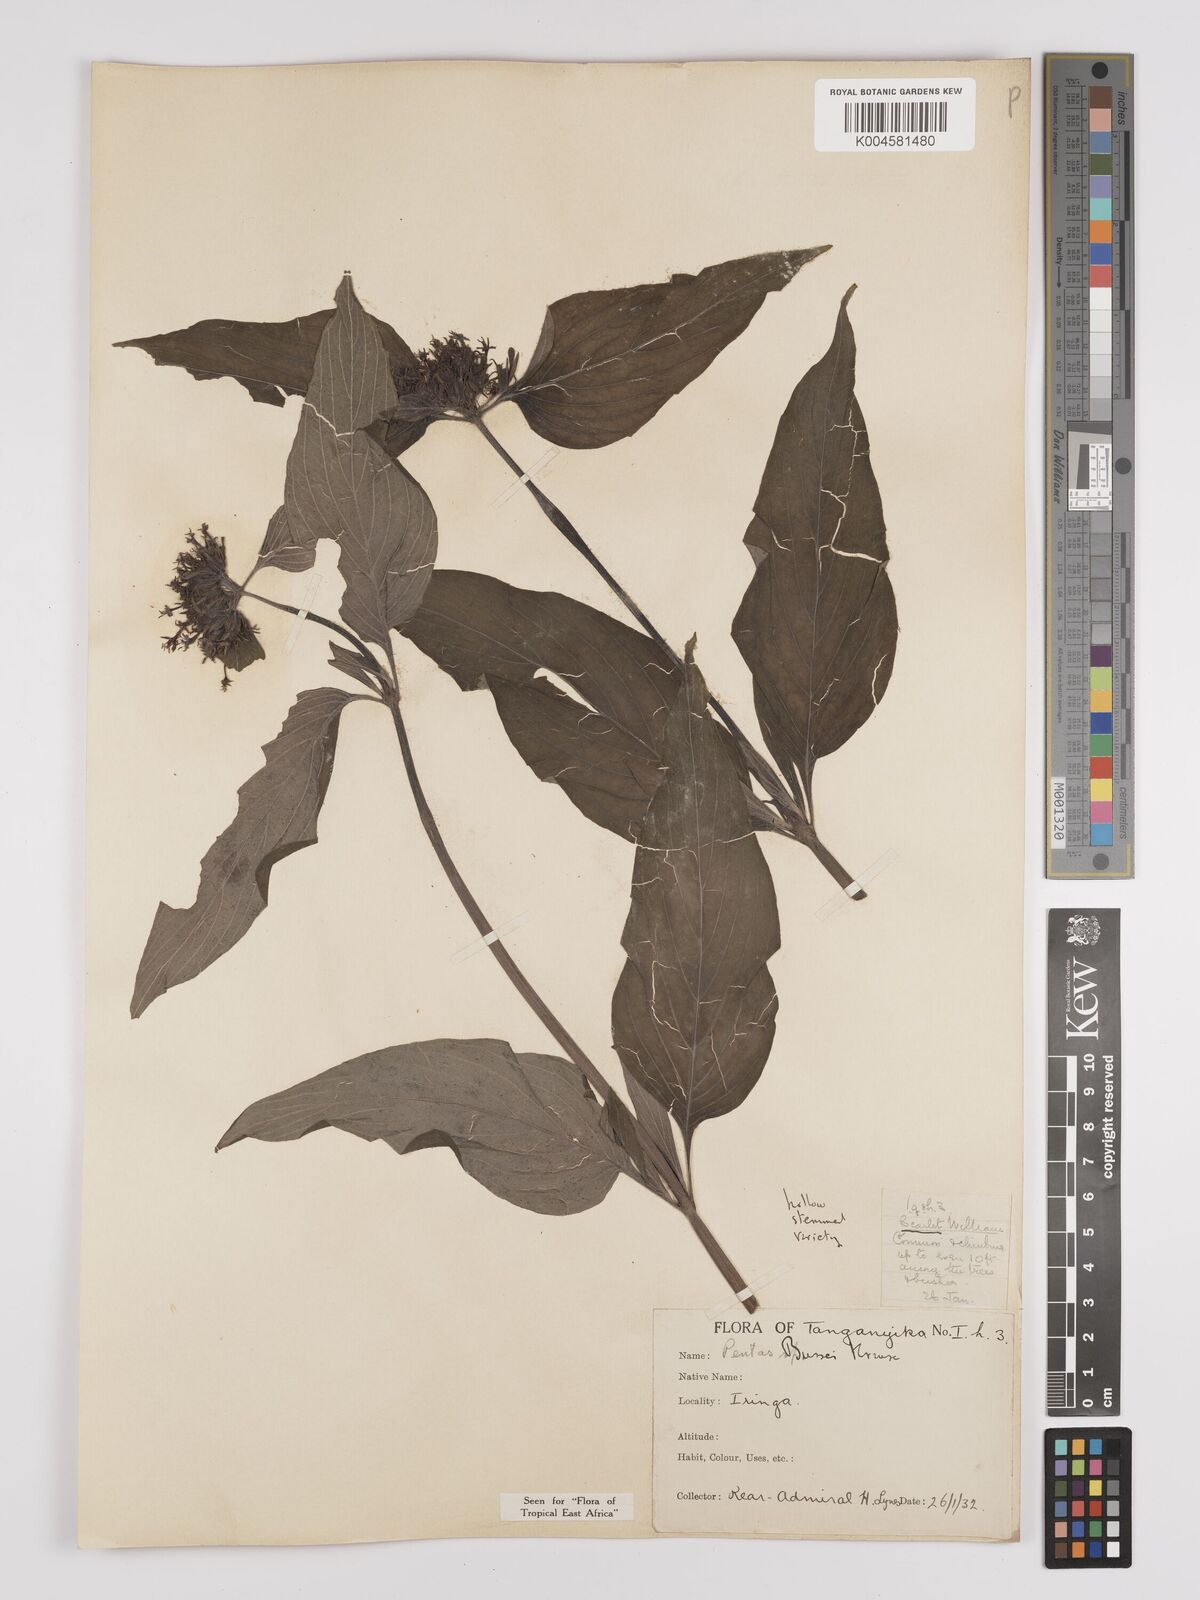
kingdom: Plantae
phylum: Tracheophyta
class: Magnoliopsida
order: Gentianales
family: Rubiaceae
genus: Rhodopentas
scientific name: Rhodopentas bussei
